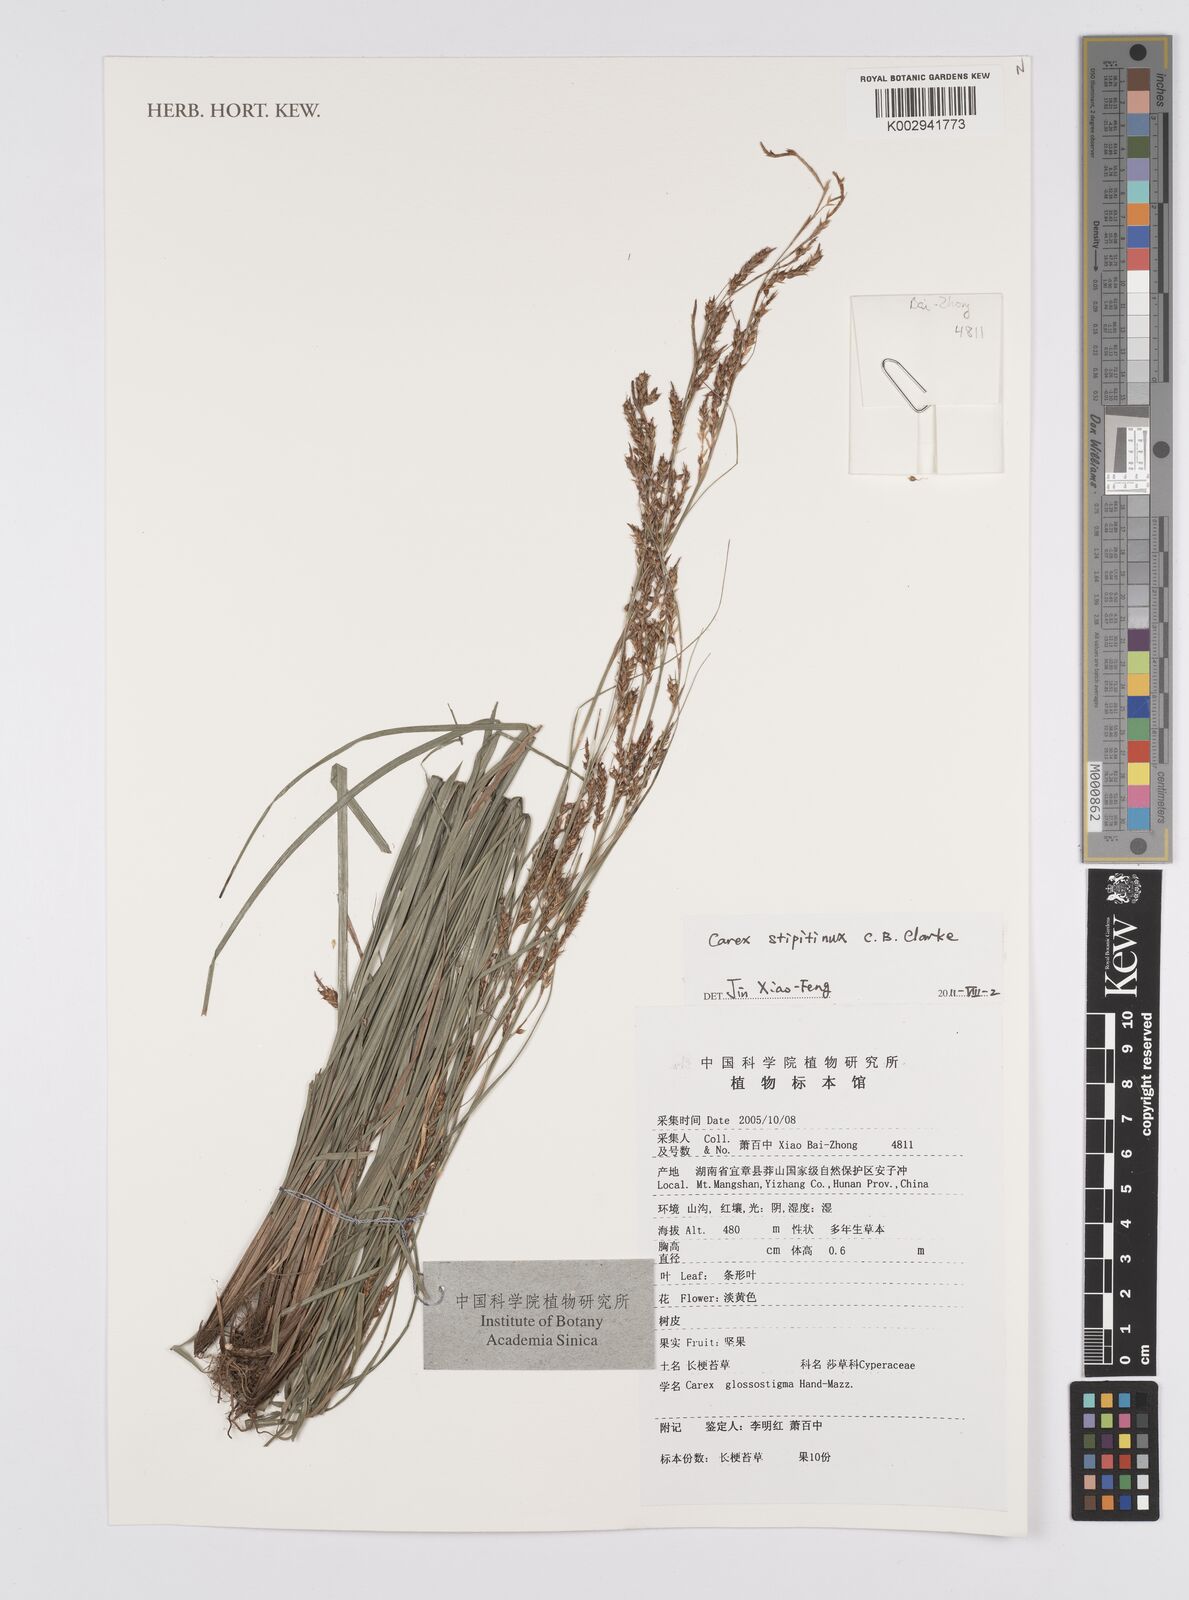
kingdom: Plantae
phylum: Tracheophyta
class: Liliopsida
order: Poales
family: Cyperaceae
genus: Carex
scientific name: Carex brunnea
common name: Greater brown sedge
